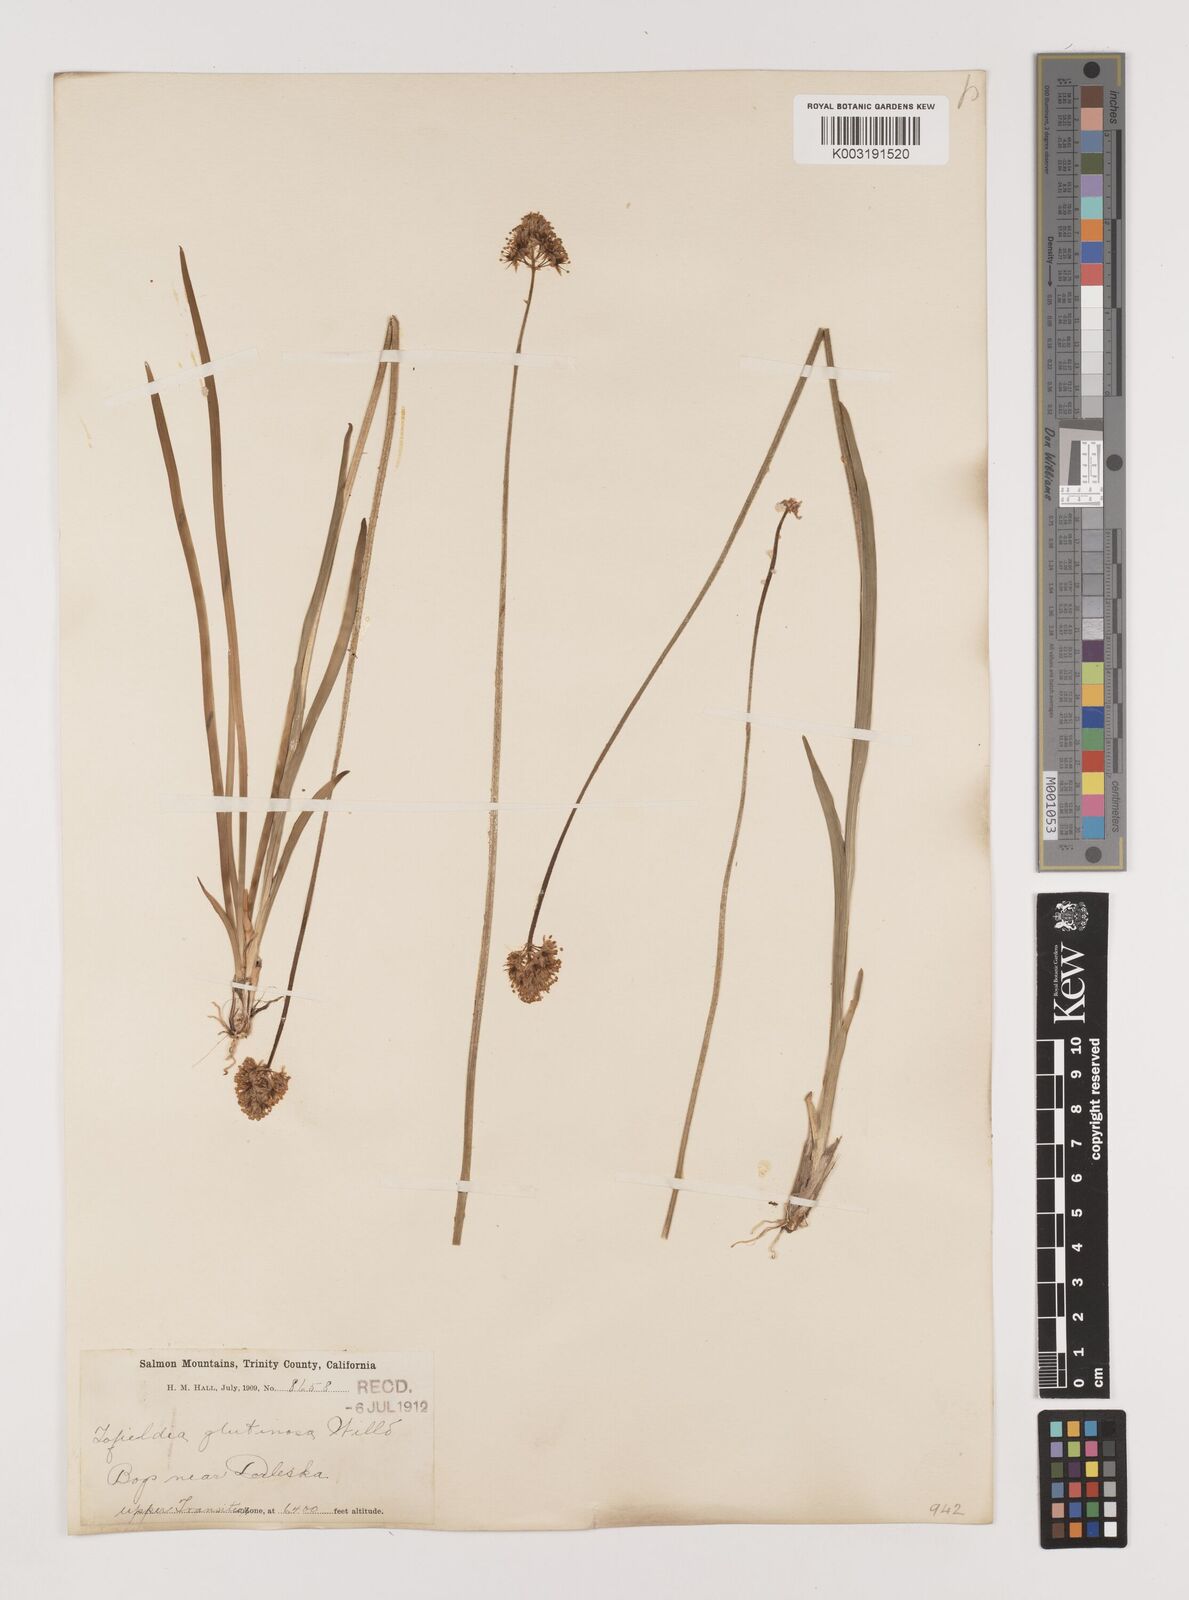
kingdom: Plantae
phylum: Tracheophyta
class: Liliopsida
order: Alismatales
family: Tofieldiaceae
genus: Triantha
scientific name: Triantha glutinosa
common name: Glutinous tofieldia
